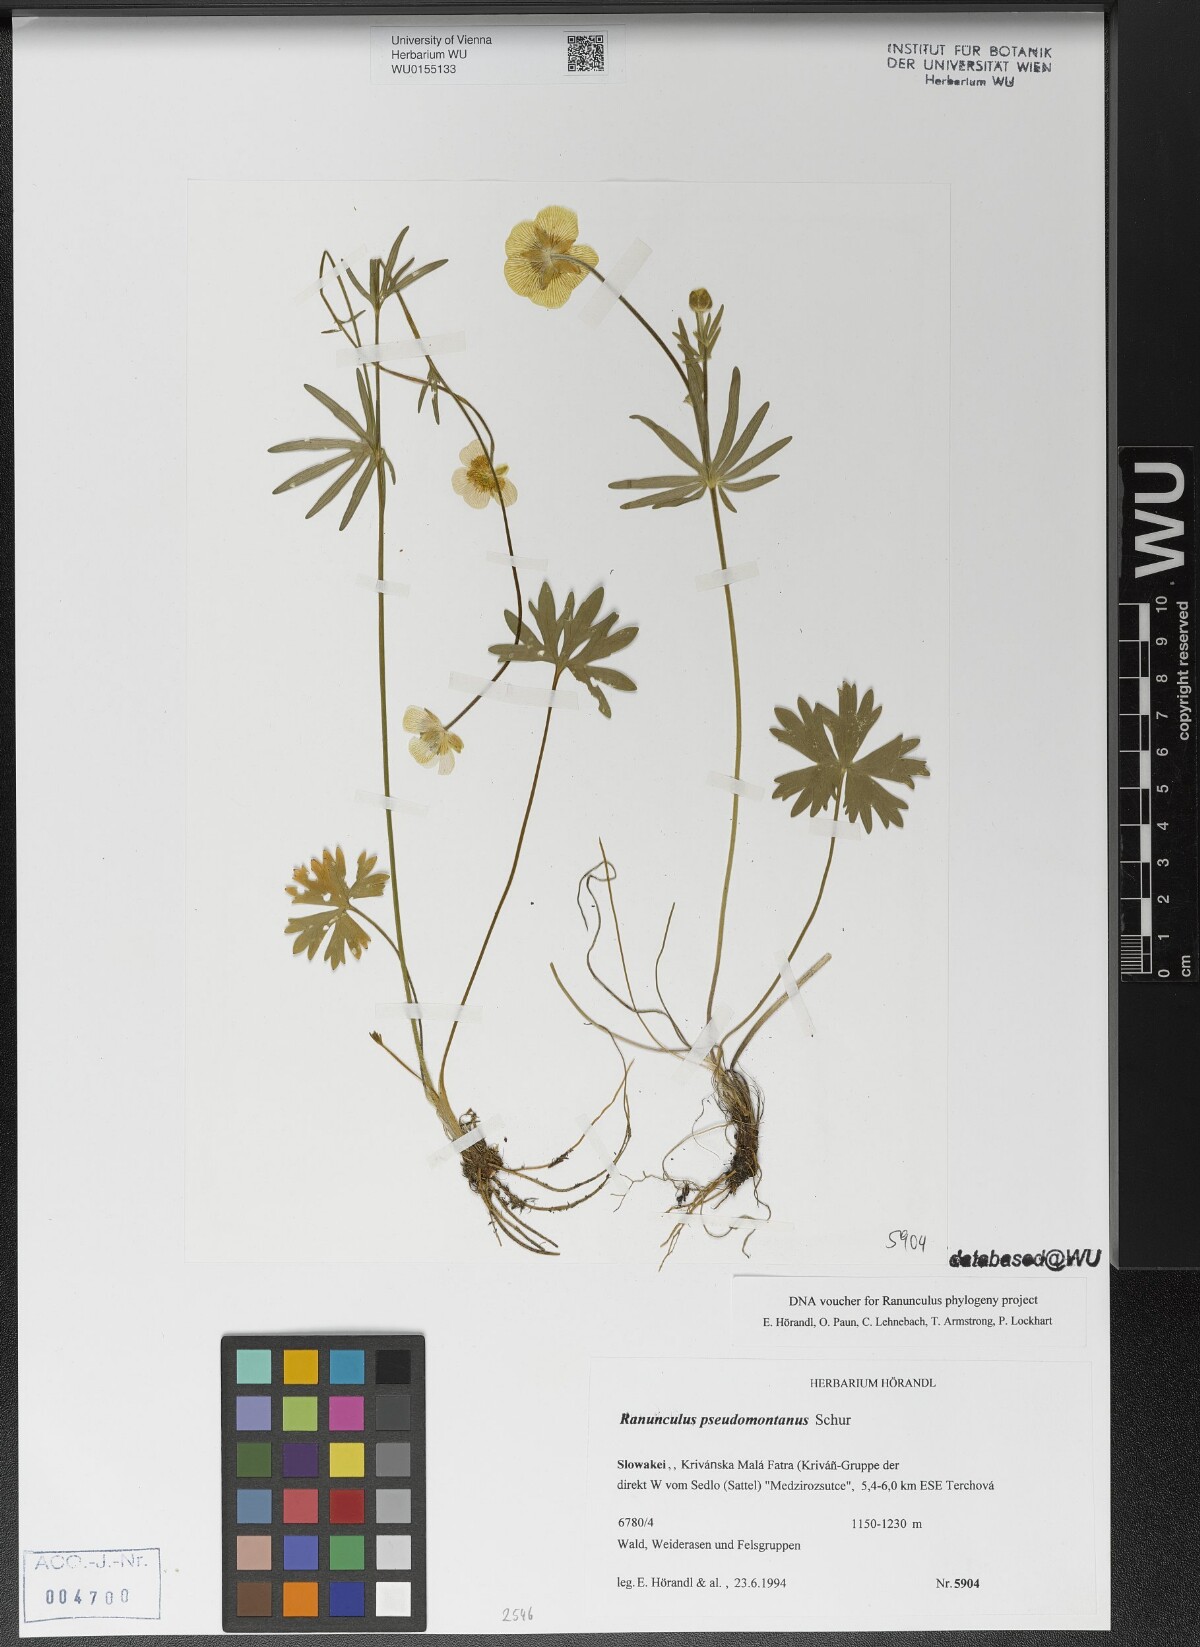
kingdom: Plantae
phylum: Tracheophyta
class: Magnoliopsida
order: Ranunculales
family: Ranunculaceae
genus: Ranunculus
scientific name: Ranunculus pseudomontanus
